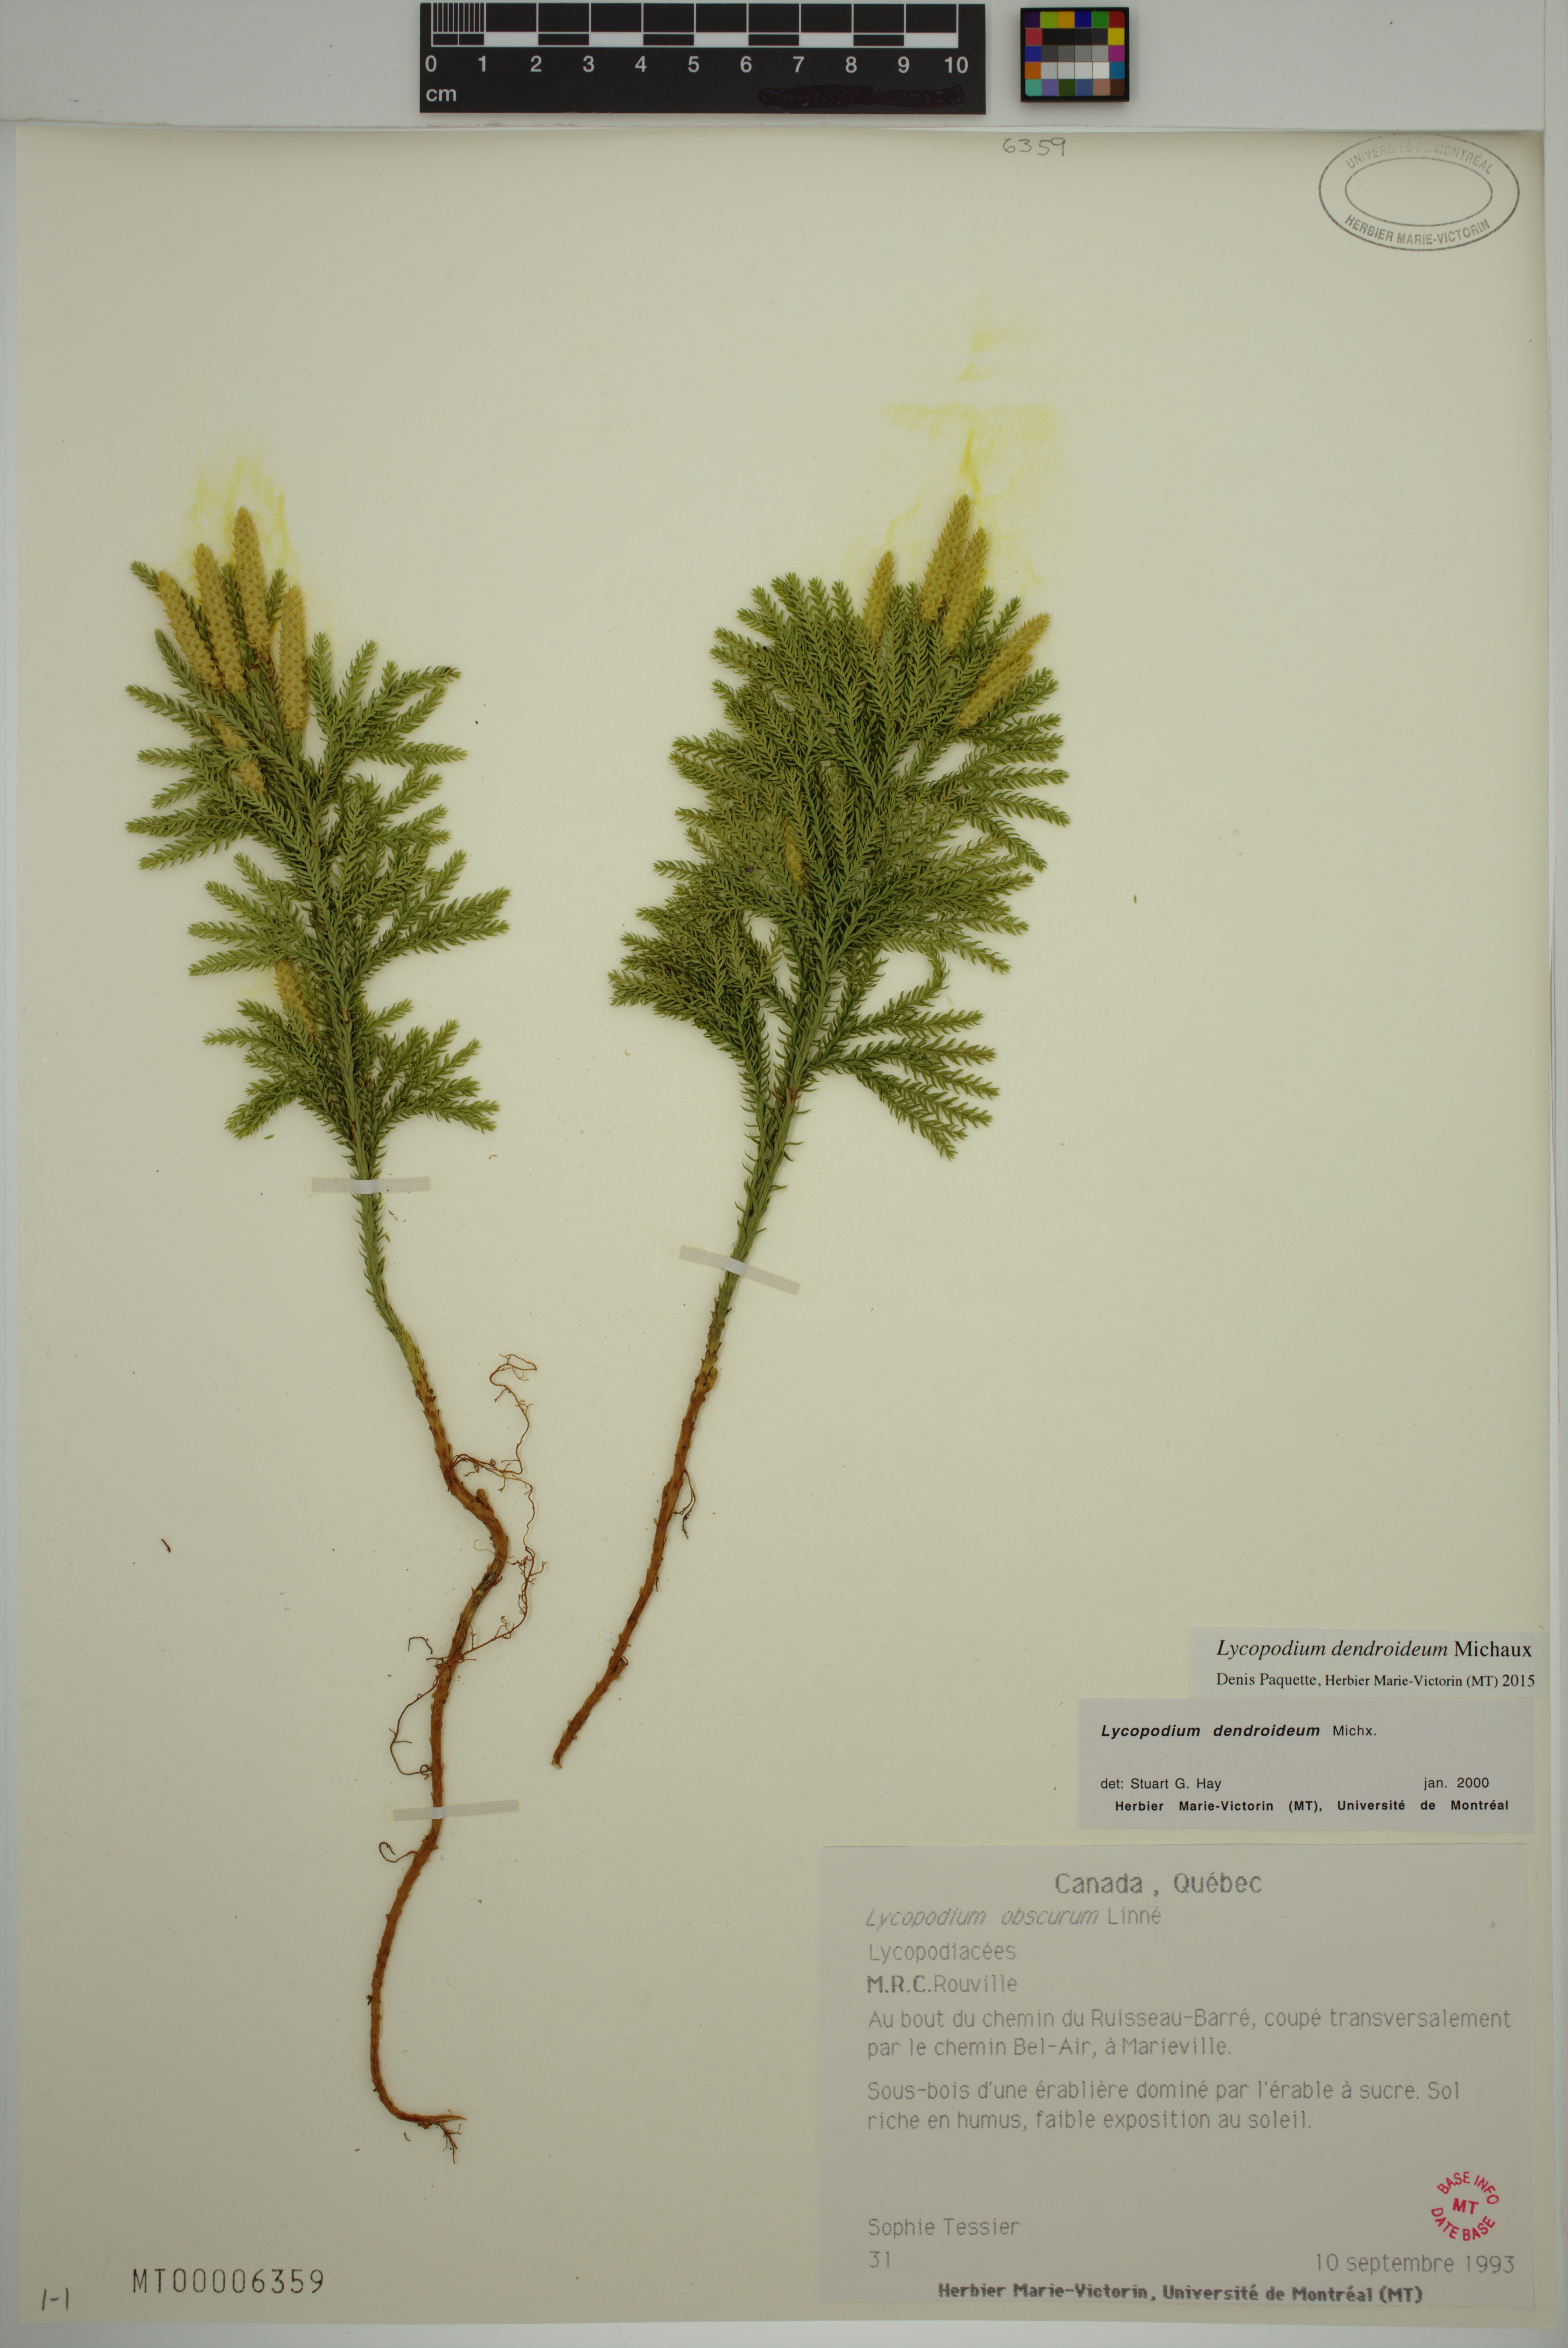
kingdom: Plantae
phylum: Tracheophyta
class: Lycopodiopsida
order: Lycopodiales
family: Lycopodiaceae
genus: Dendrolycopodium
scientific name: Dendrolycopodium dendroideum
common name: Northern tree-clubmoss
